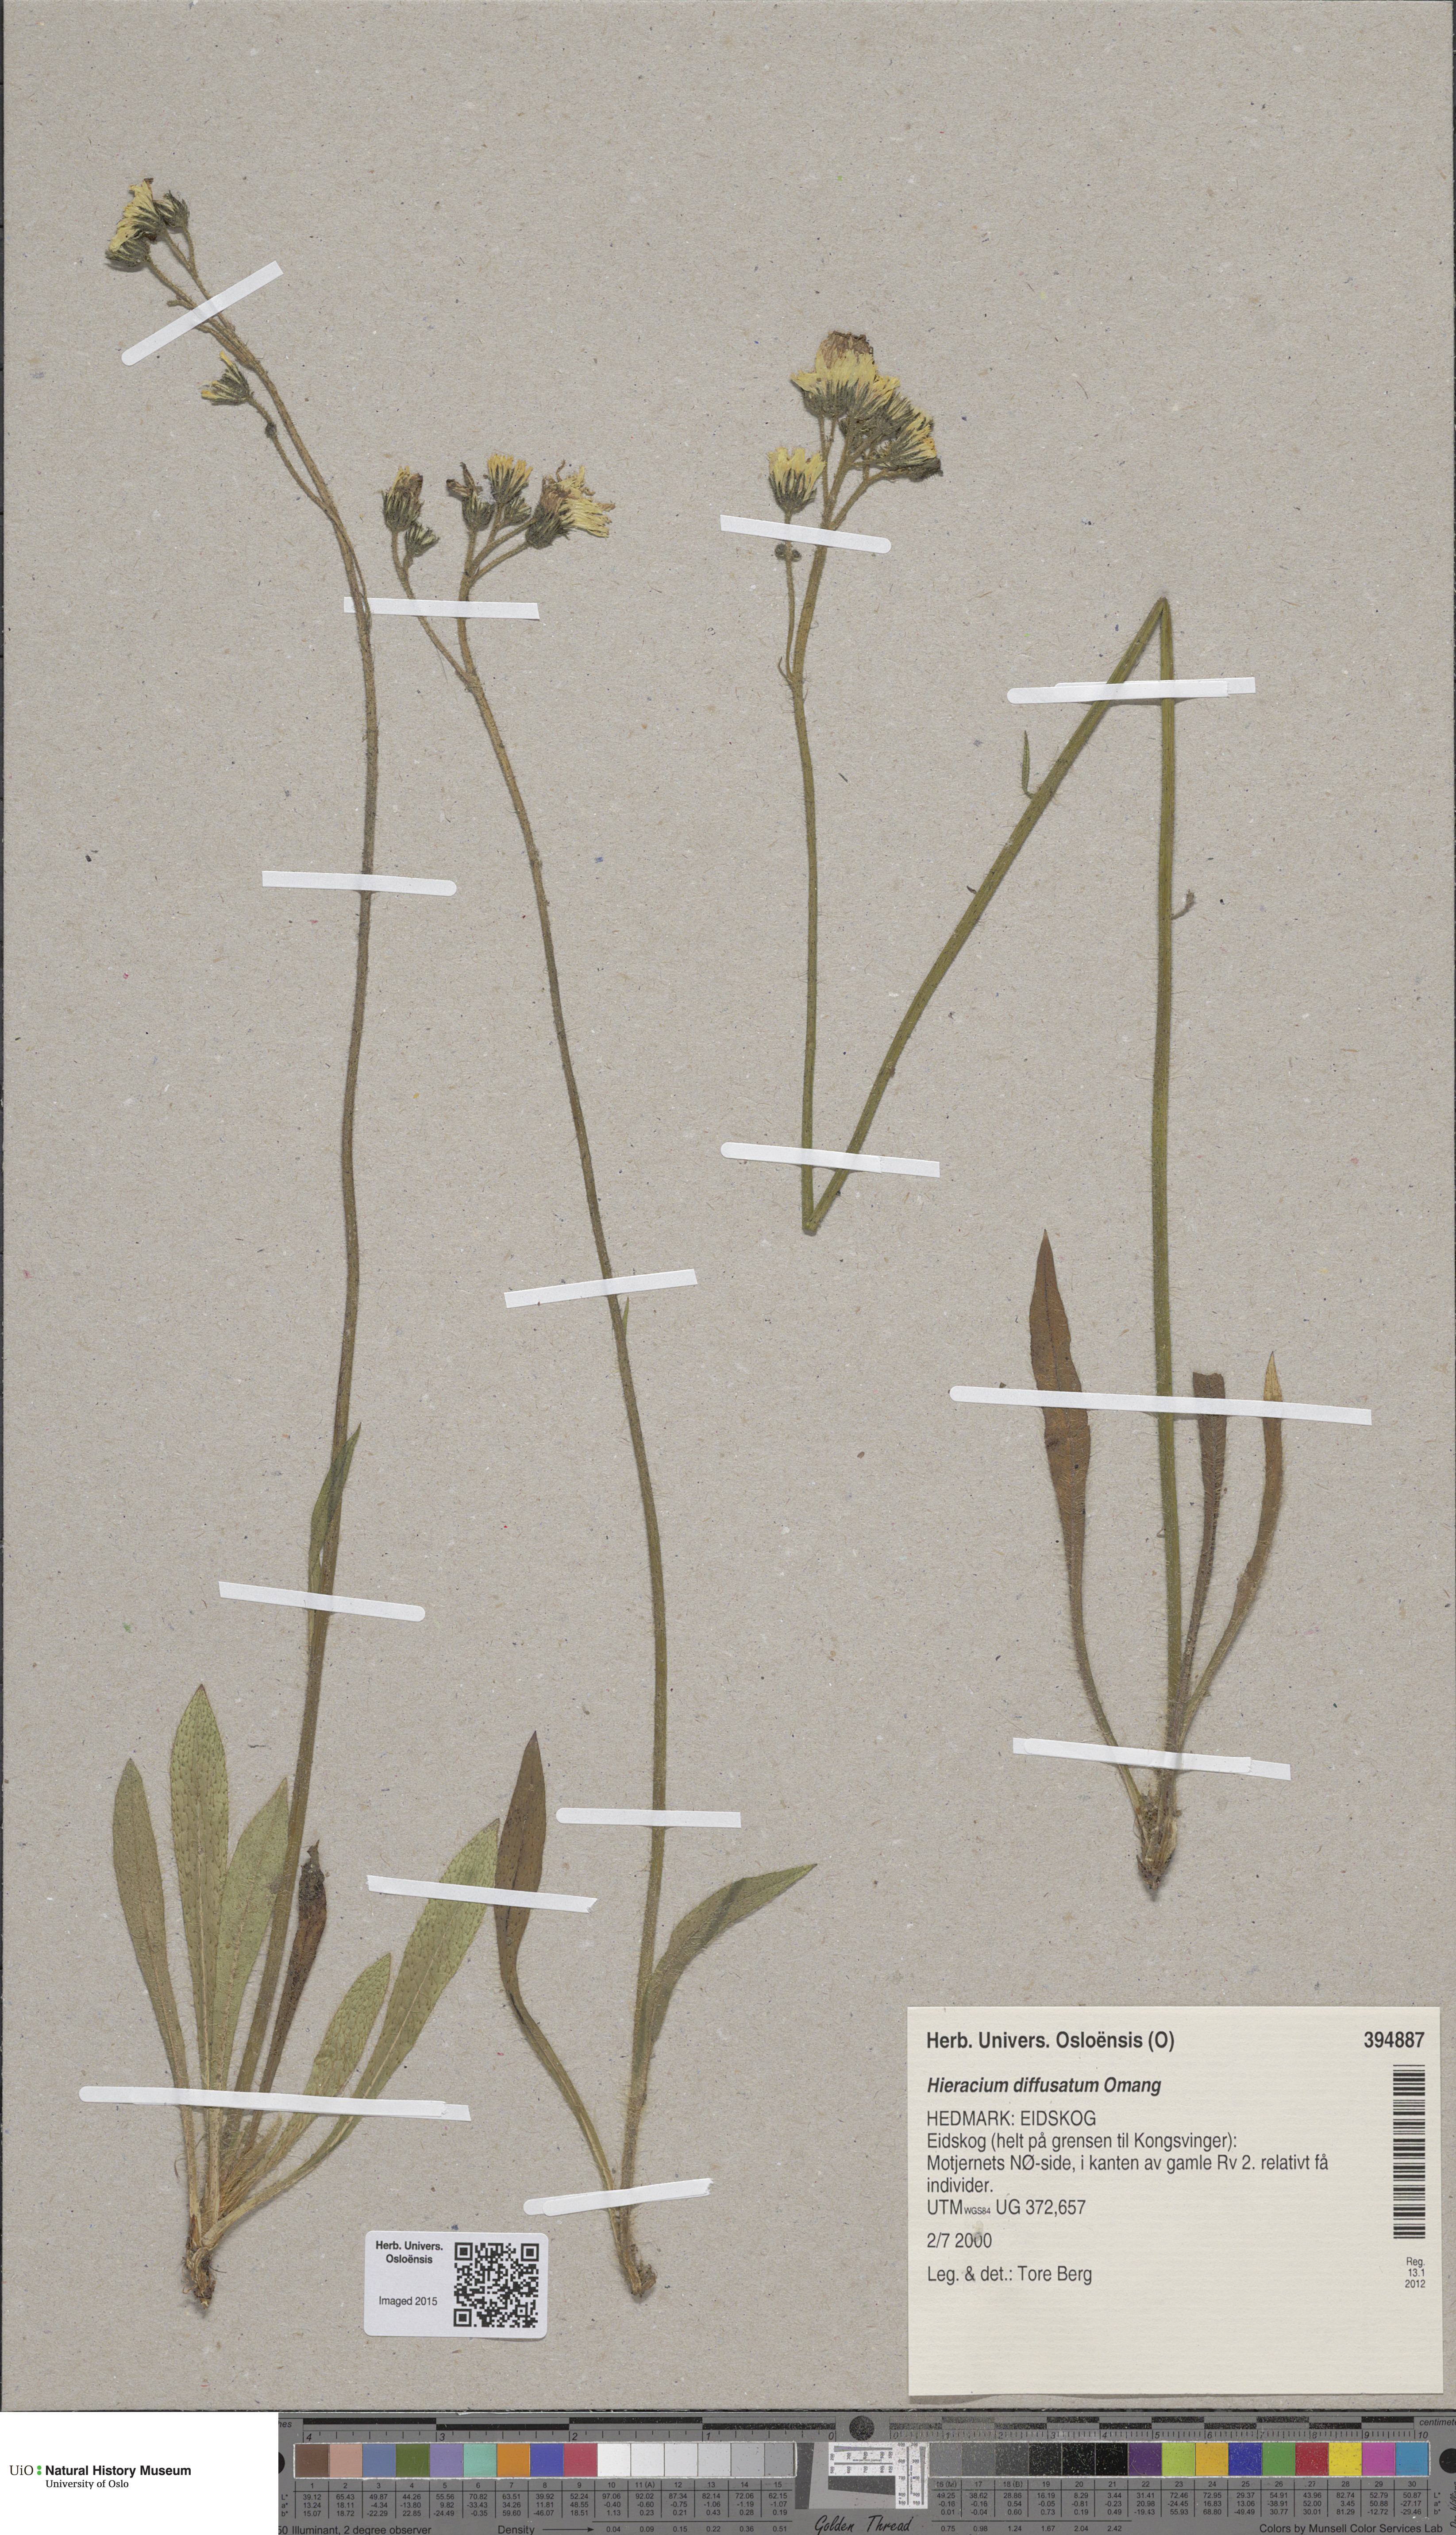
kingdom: Plantae
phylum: Tracheophyta
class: Magnoliopsida
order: Asterales
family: Asteraceae
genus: Pilosella
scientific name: Pilosella dubia
